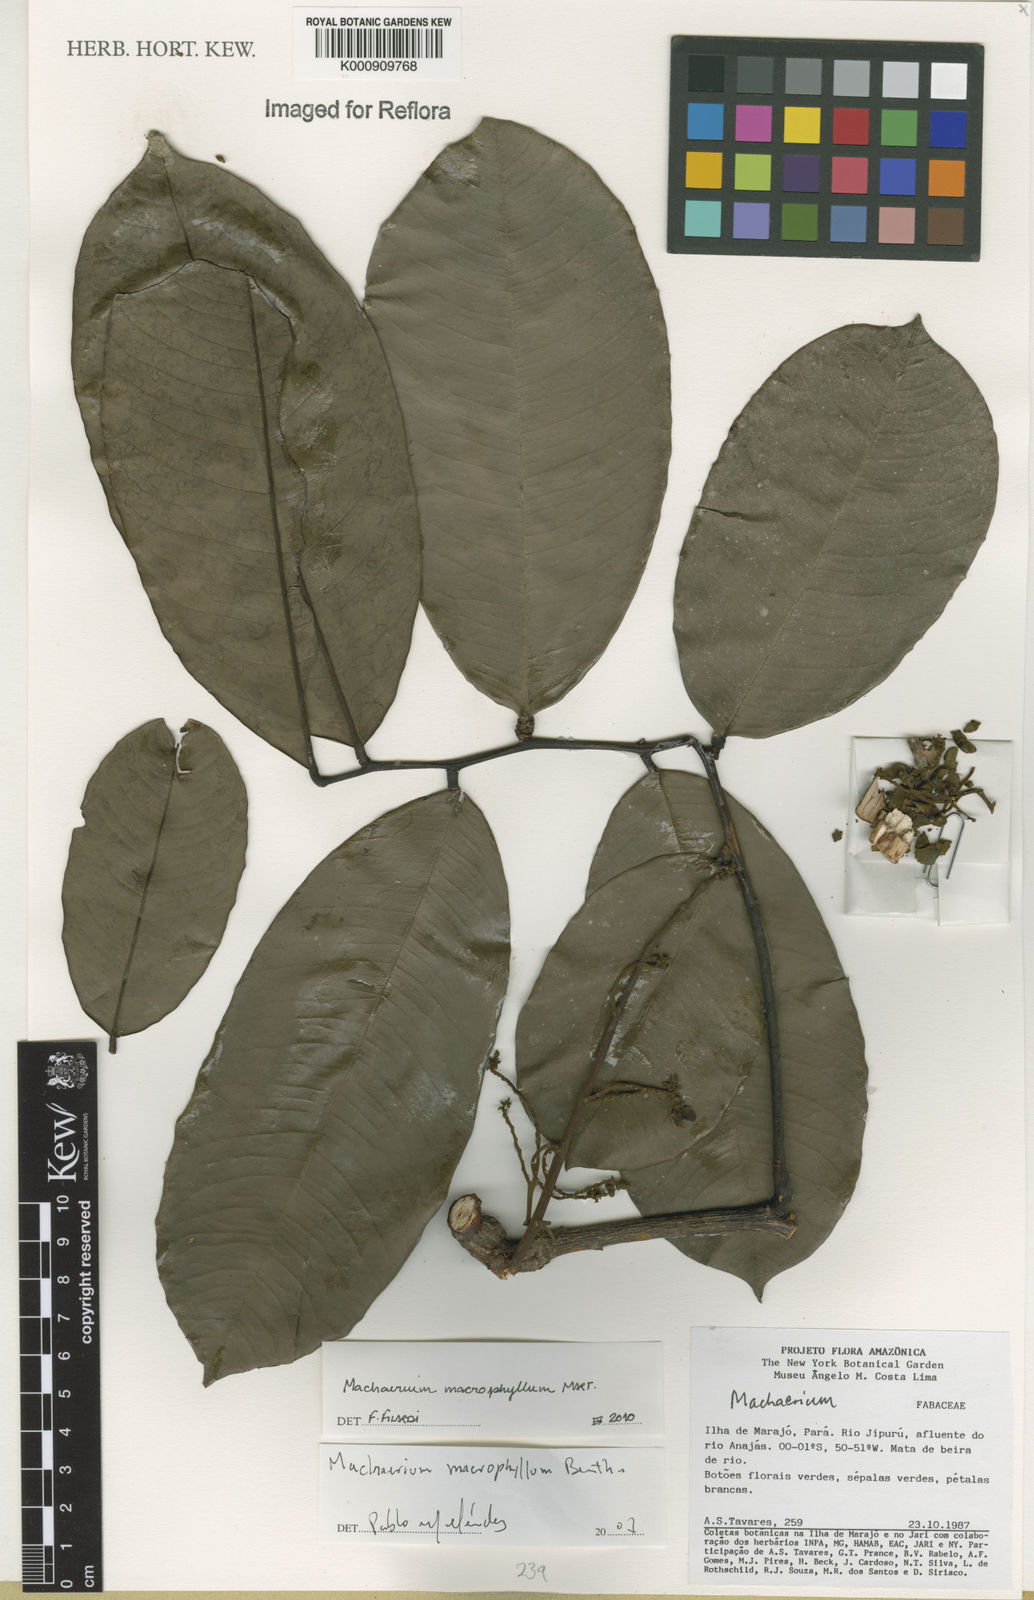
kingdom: Plantae
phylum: Tracheophyta
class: Magnoliopsida
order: Fabales
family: Fabaceae
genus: Machaerium
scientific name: Machaerium macrophyllum
